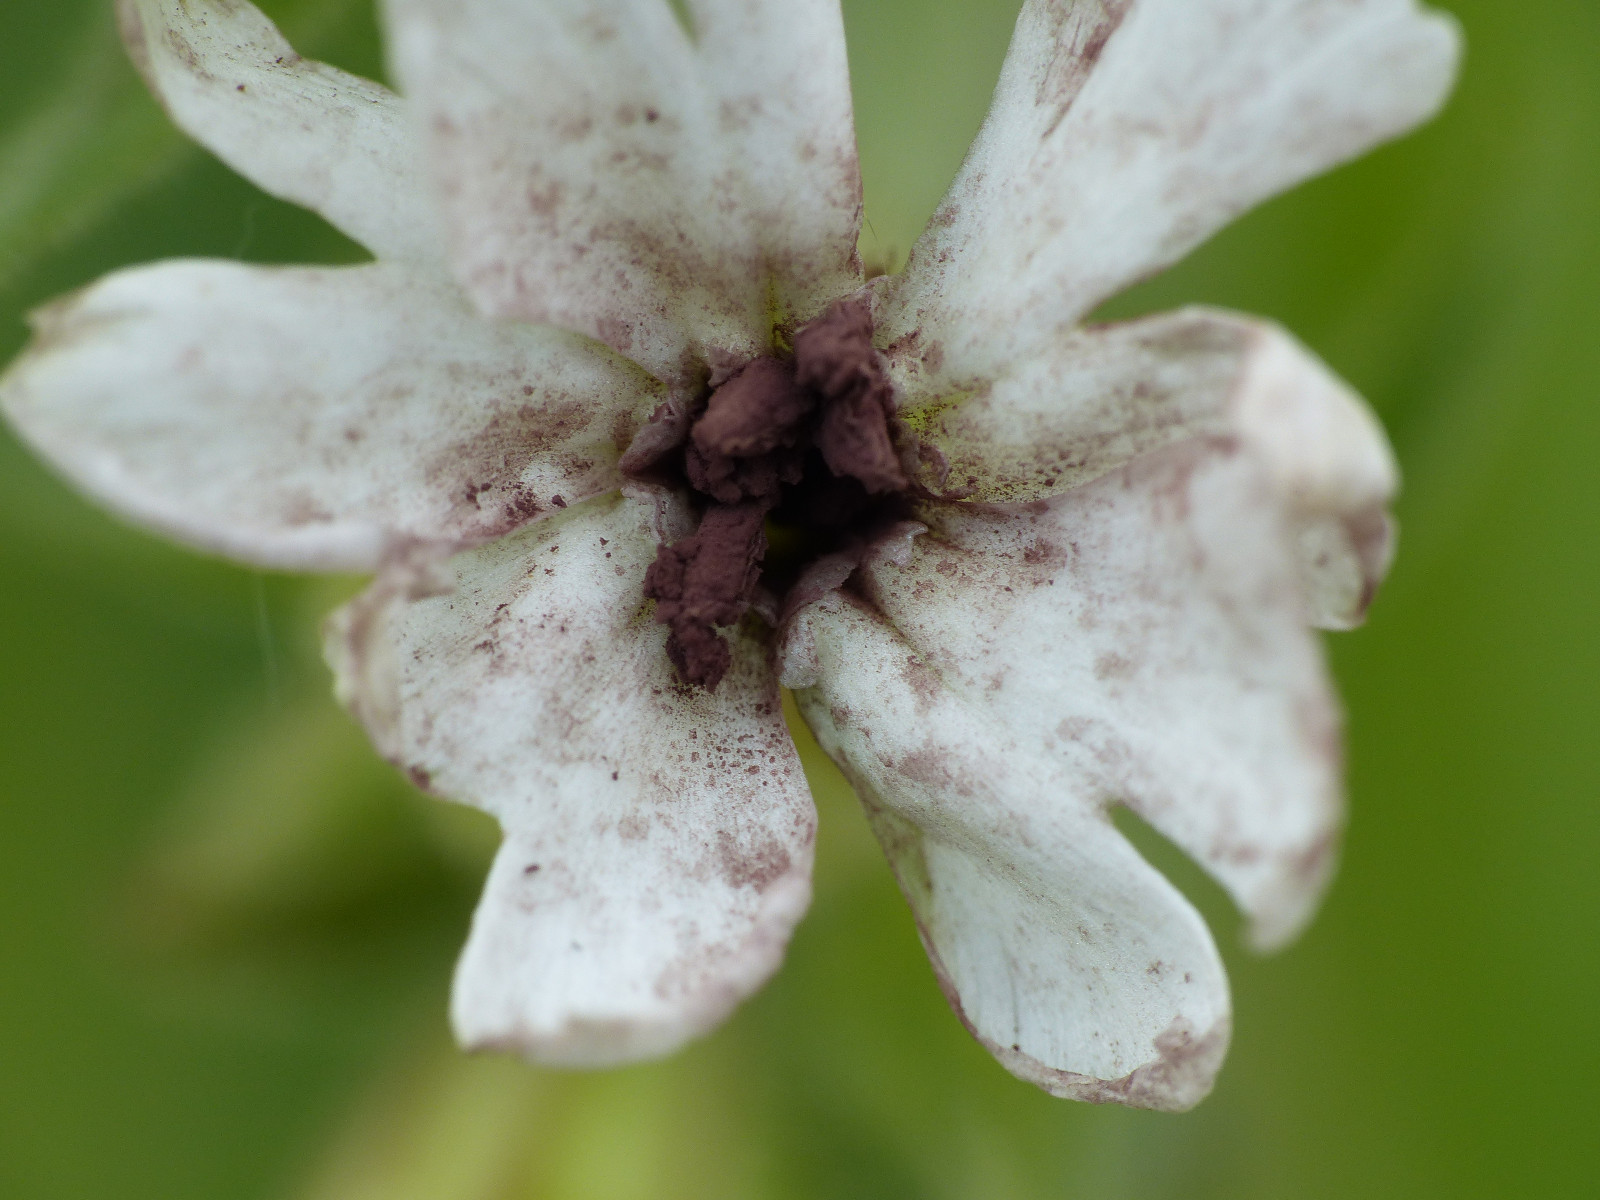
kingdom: Fungi
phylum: Basidiomycota
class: Microbotryomycetes
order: Microbotryales
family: Microbotryaceae
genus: Microbotryum
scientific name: Microbotryum lychnidis-dioicae
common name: Campion anther smut
